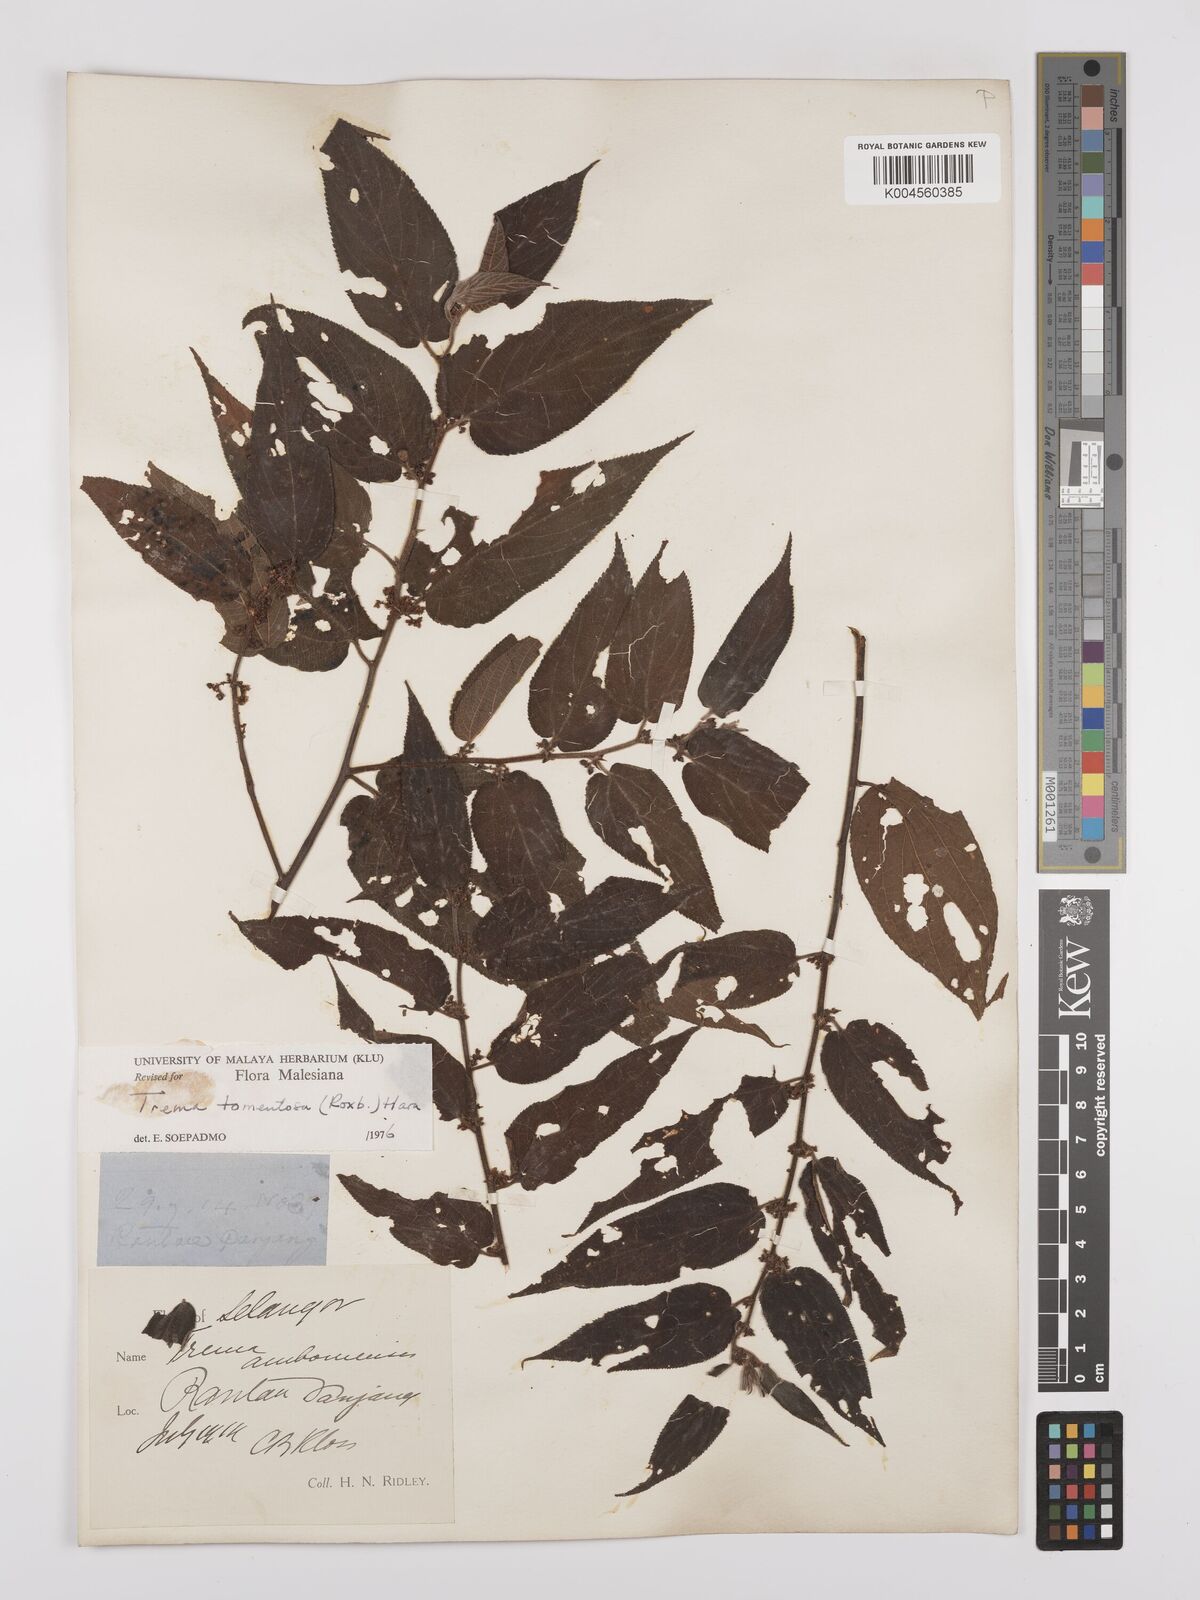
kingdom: Plantae
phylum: Tracheophyta
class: Magnoliopsida
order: Rosales
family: Cannabaceae
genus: Trema
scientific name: Trema tomentosum
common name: Peach-leaf-poisonbush
